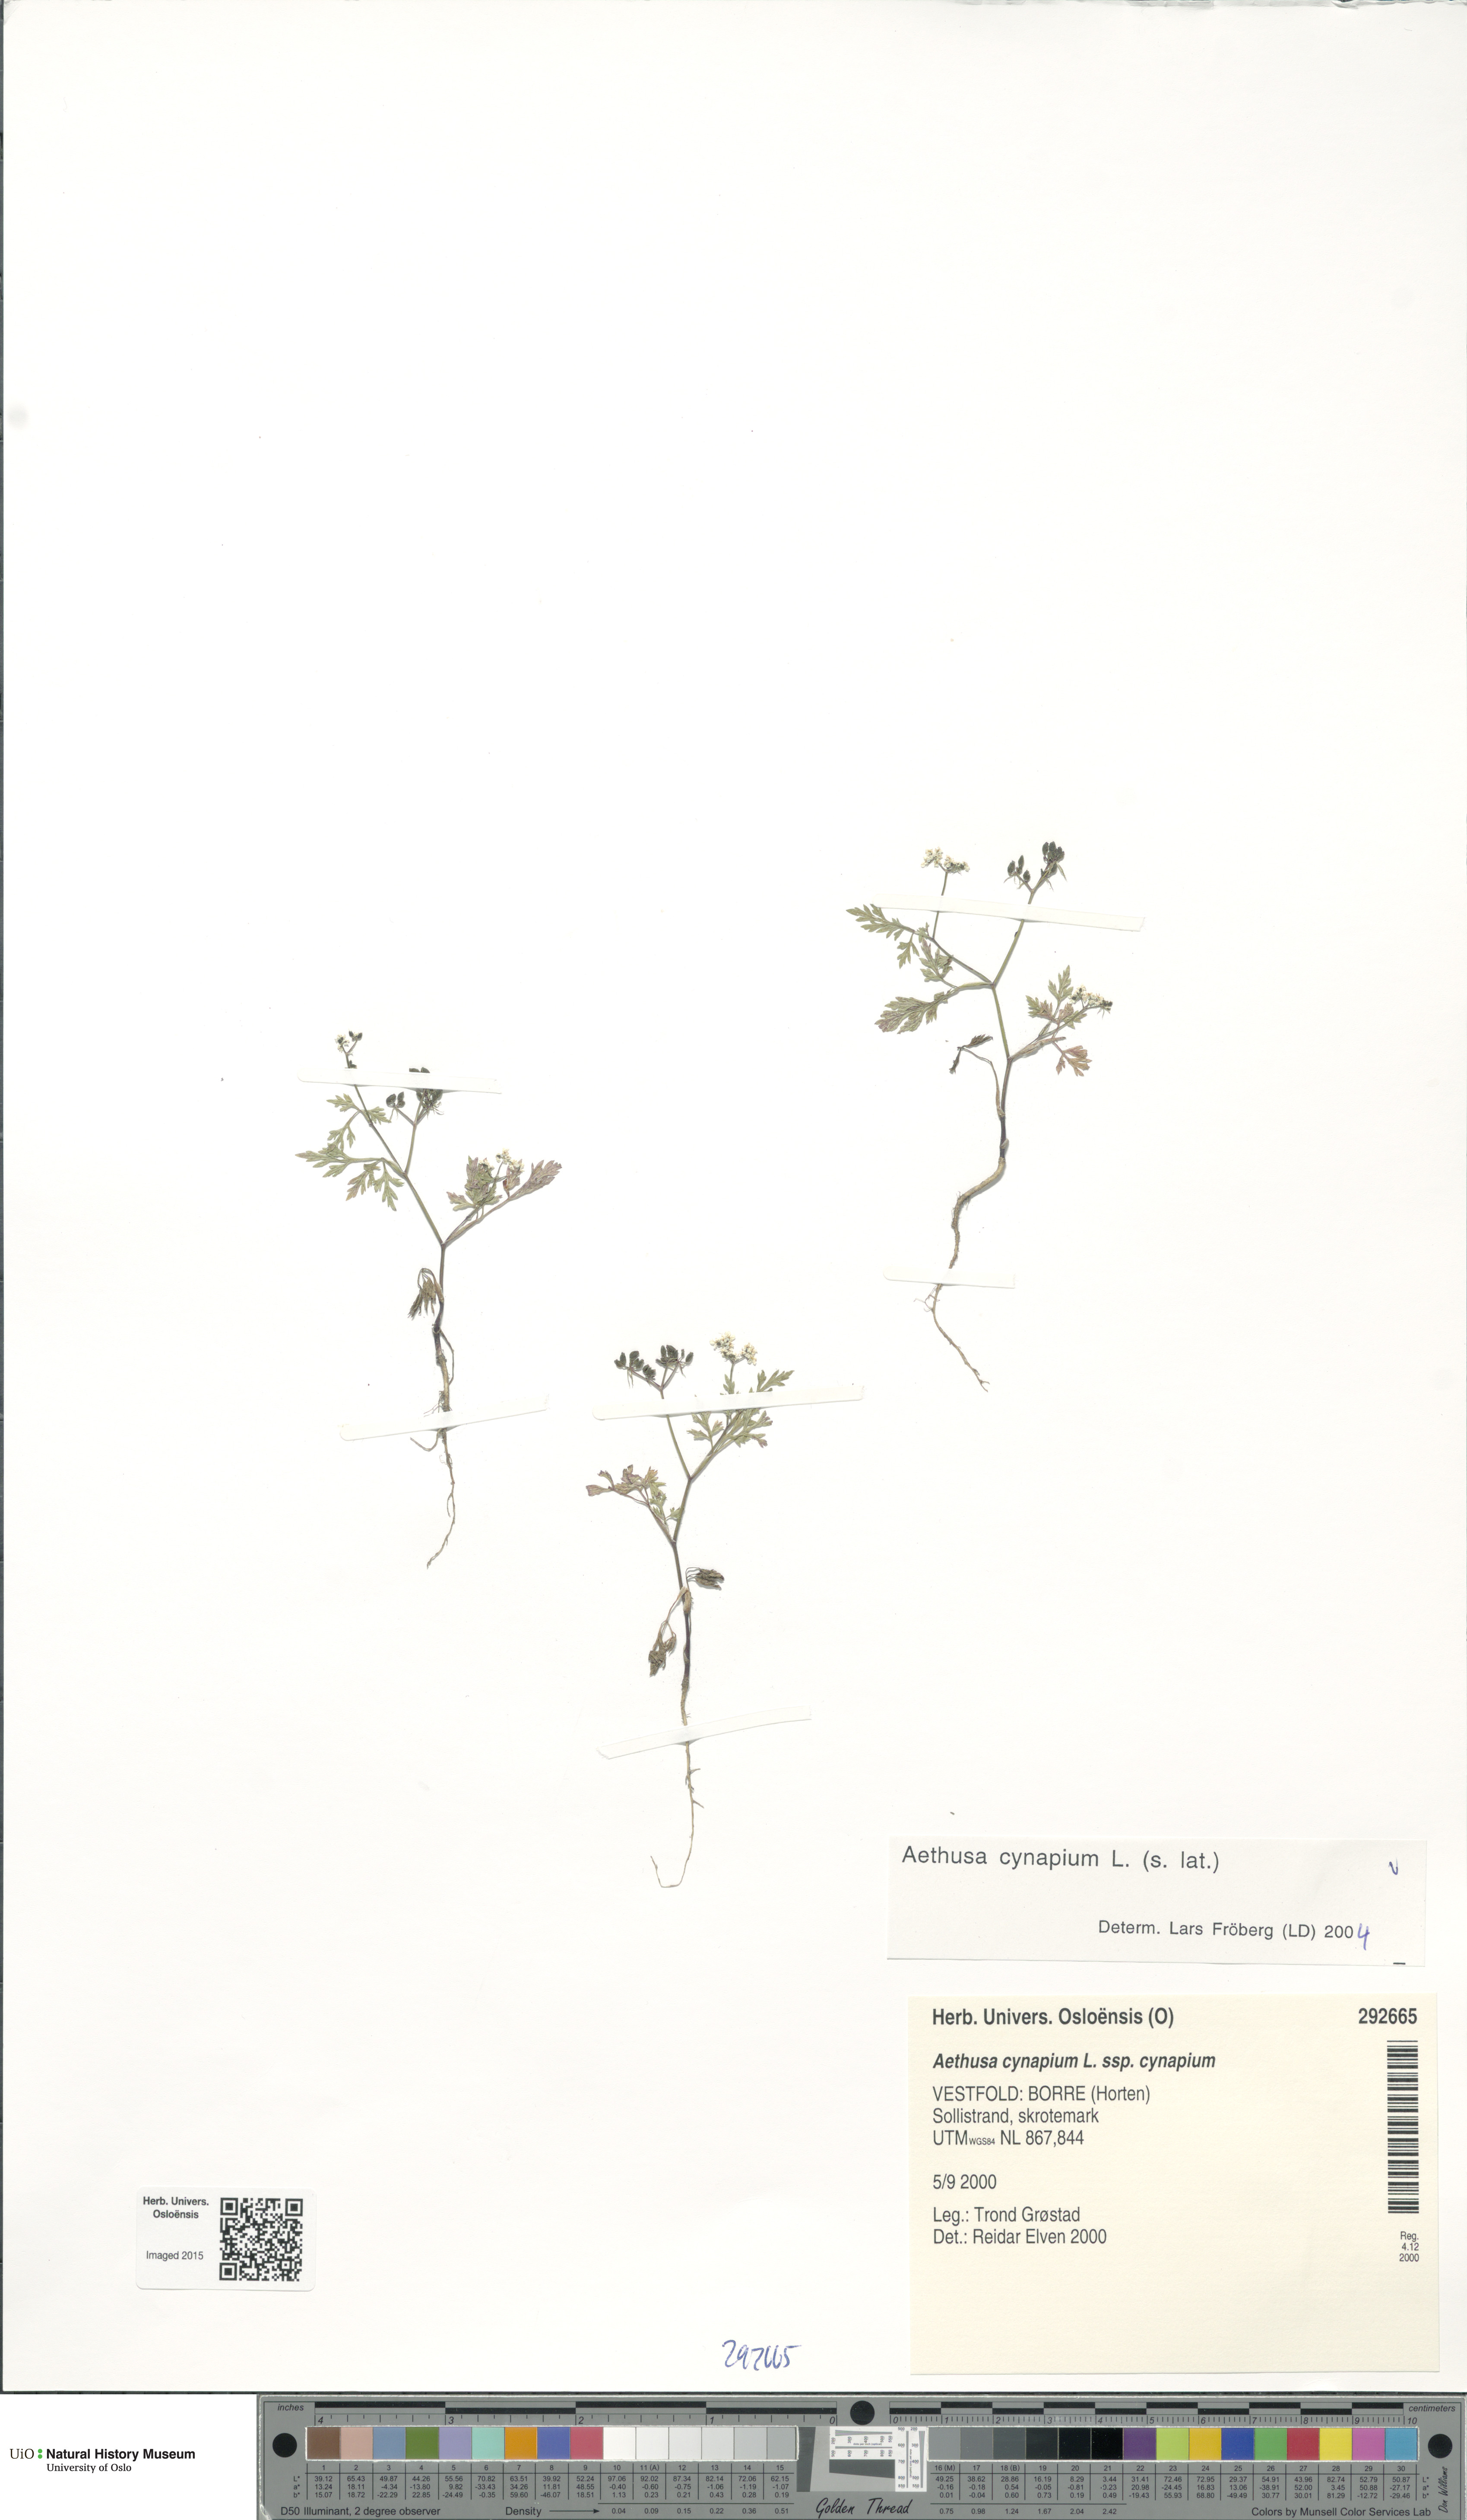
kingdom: Plantae
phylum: Tracheophyta
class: Magnoliopsida
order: Apiales
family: Apiaceae
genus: Aethusa
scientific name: Aethusa cynapium
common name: Fool's parsley
